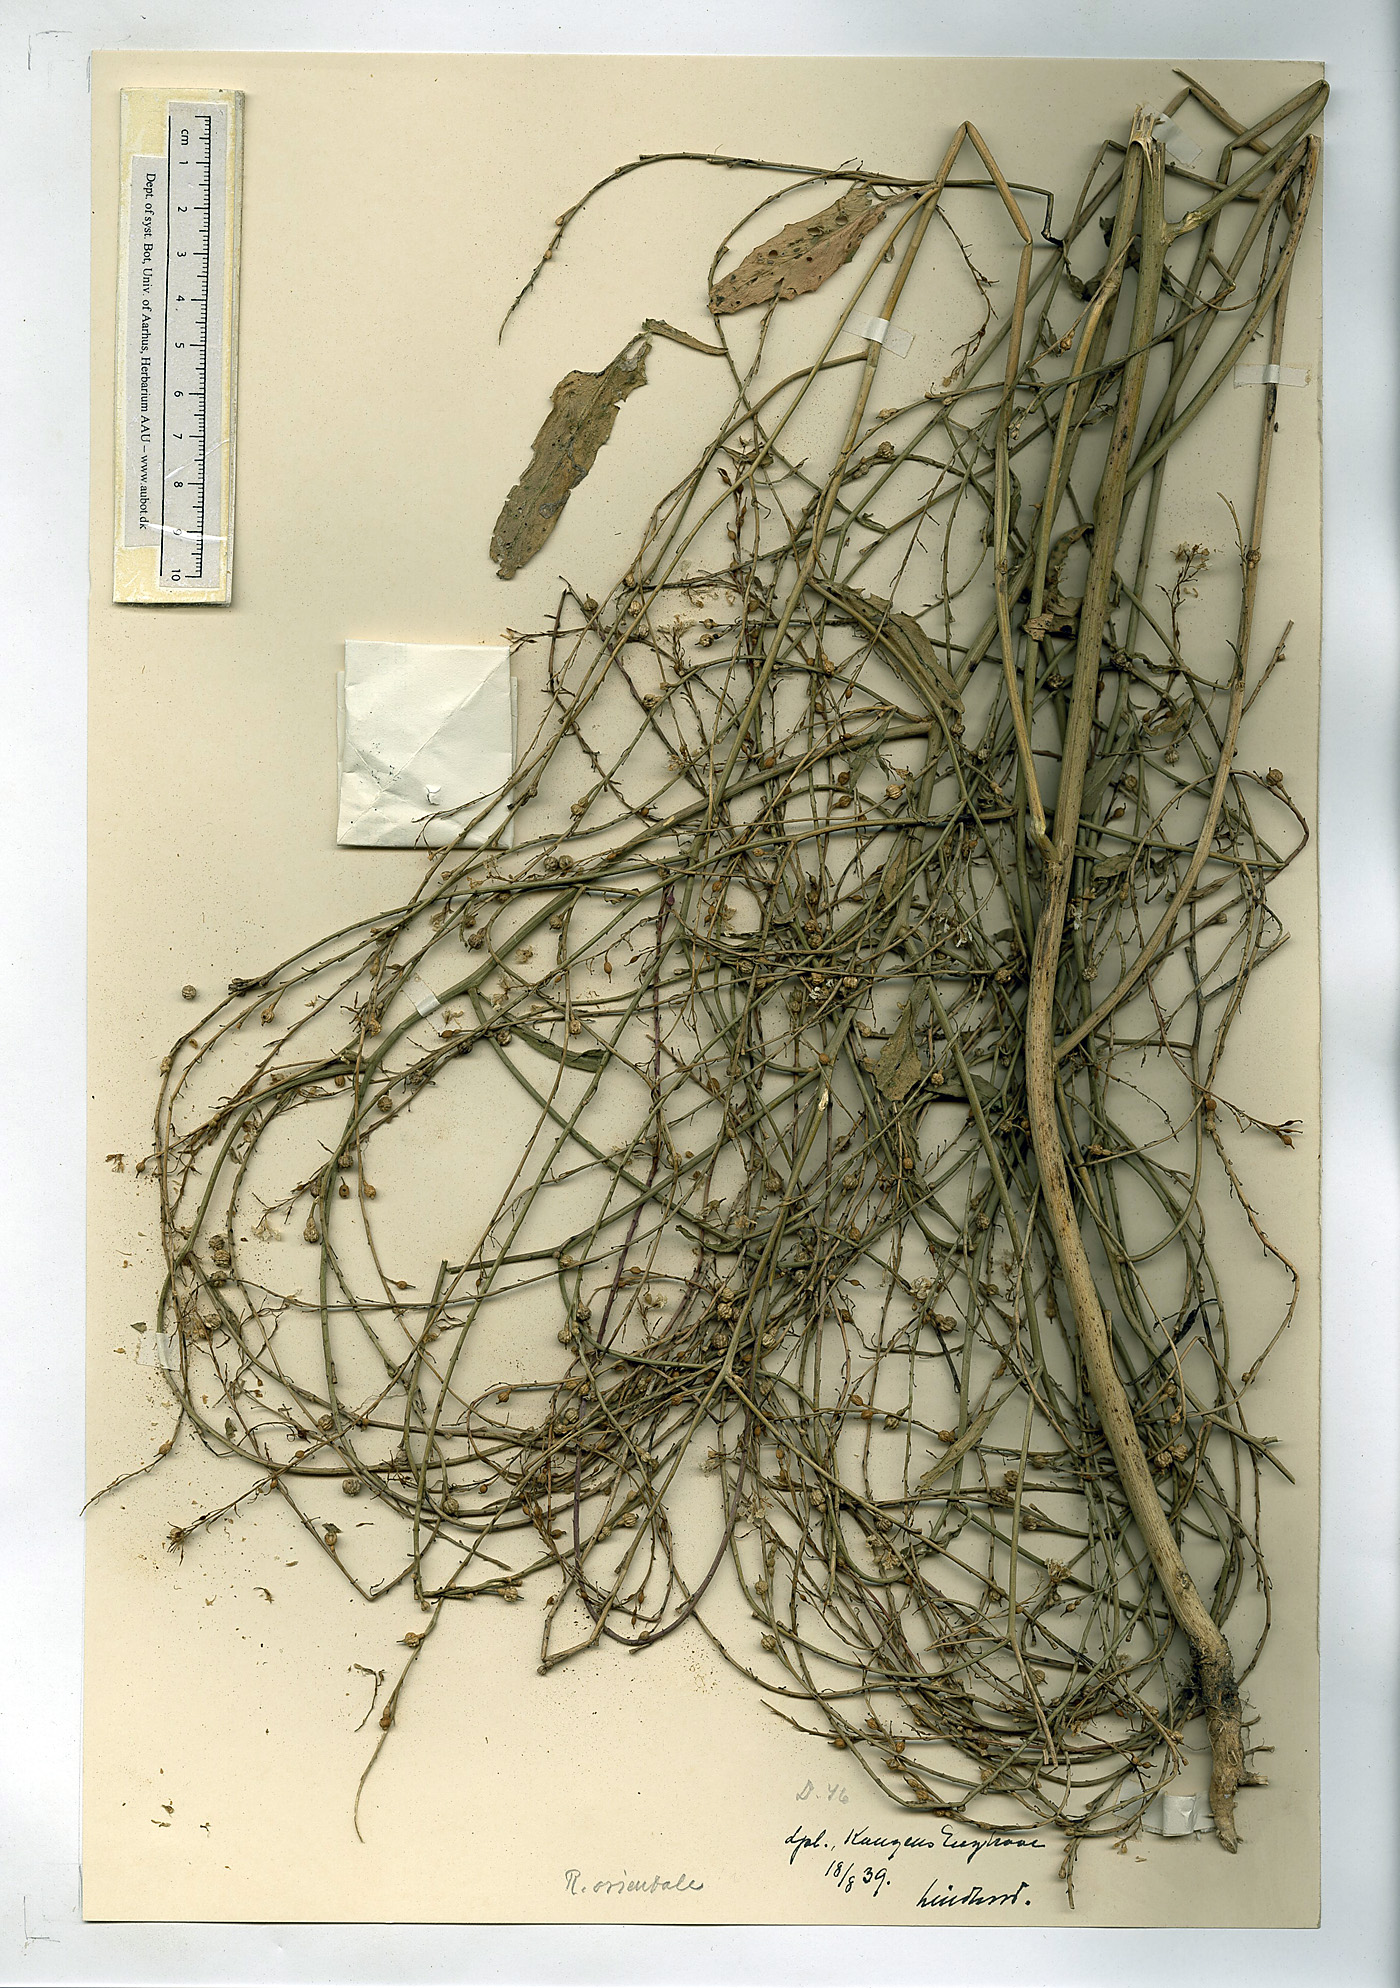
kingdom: Plantae
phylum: Tracheophyta
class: Magnoliopsida
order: Brassicales
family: Brassicaceae
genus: Rapistrum
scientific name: Rapistrum rugosum
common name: Annual bastardcabbage
